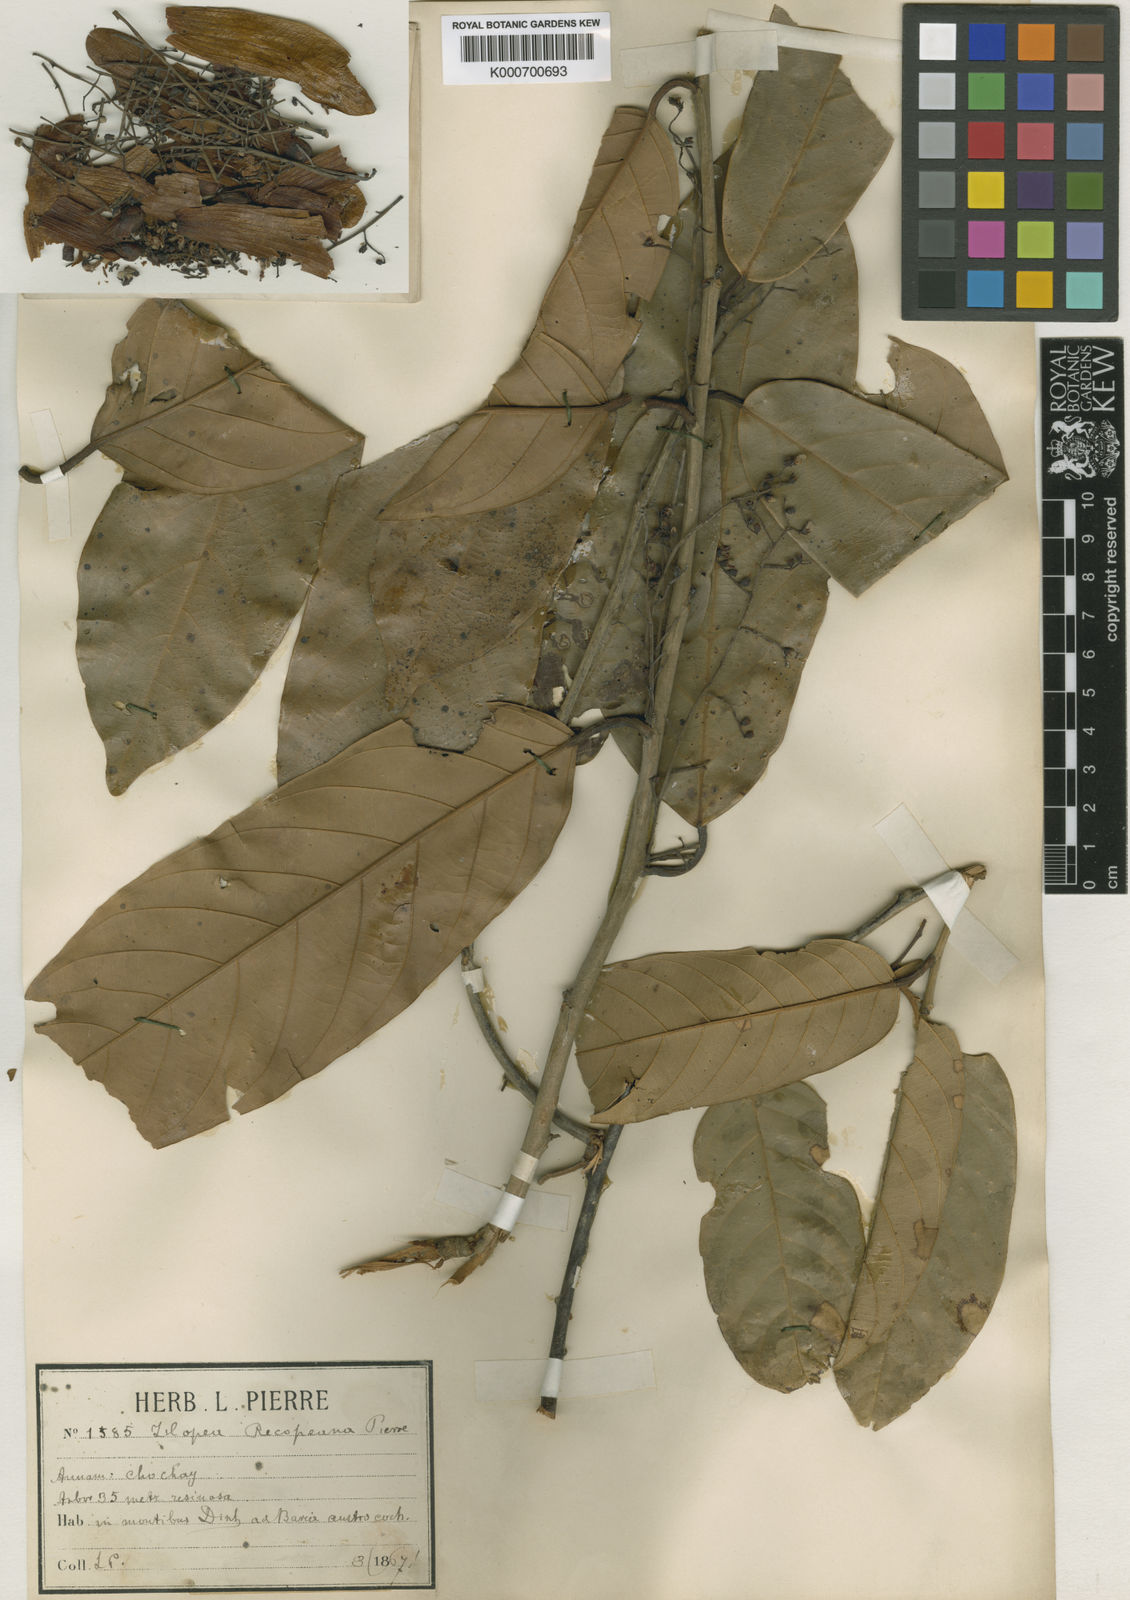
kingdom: Plantae
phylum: Tracheophyta
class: Magnoliopsida
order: Malvales
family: Dipterocarpaceae
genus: Hopea
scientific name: Hopea recopei
